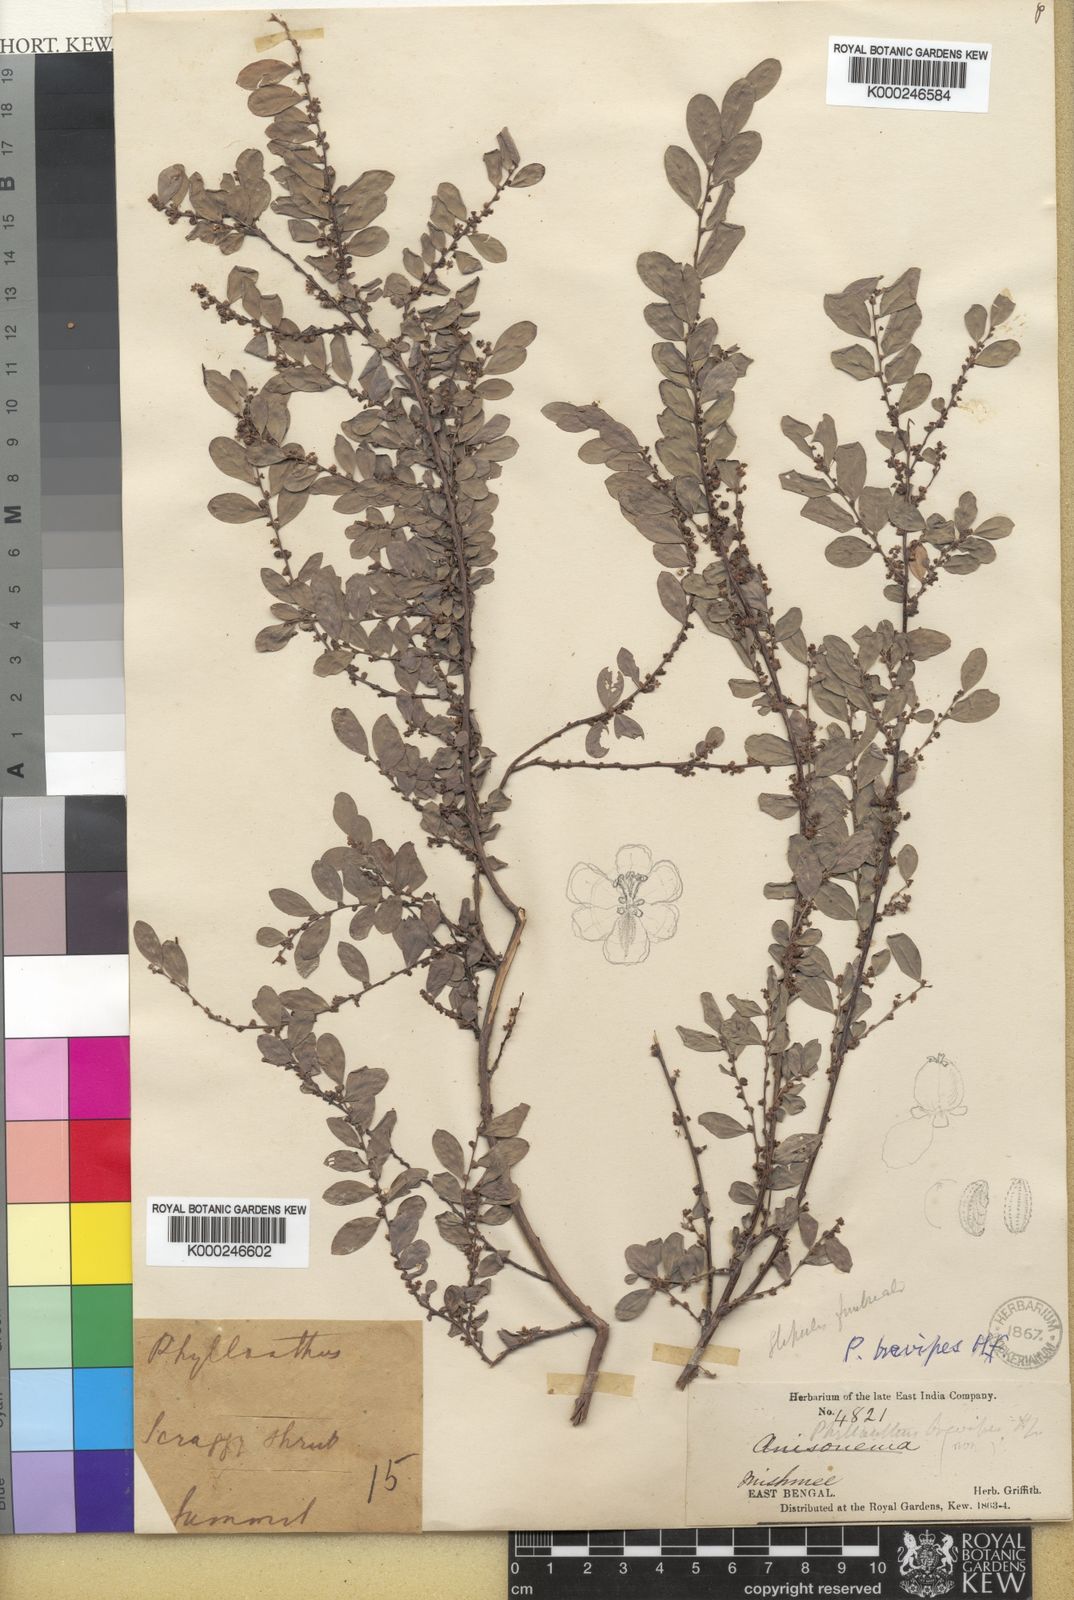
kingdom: Plantae
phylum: Tracheophyta
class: Magnoliopsida
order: Malpighiales
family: Phyllanthaceae
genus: Phyllanthus
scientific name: Phyllanthus brevipes
